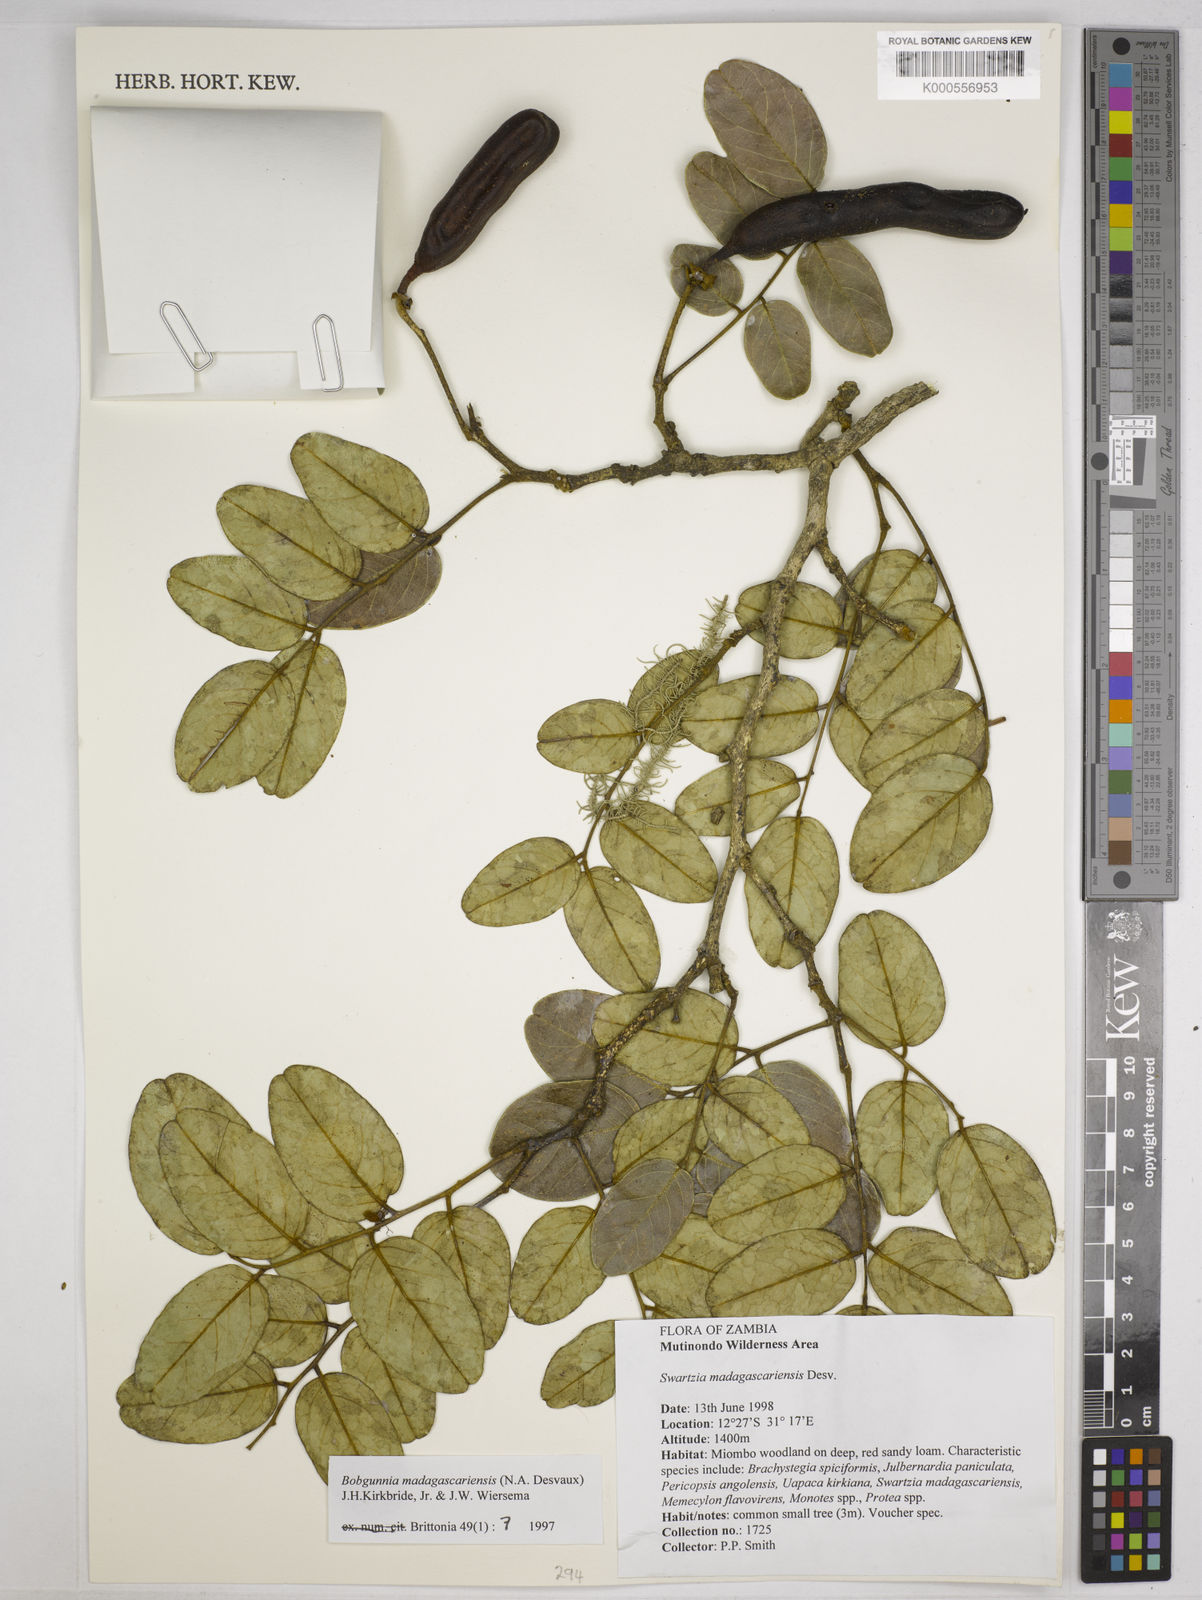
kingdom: Plantae
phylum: Tracheophyta
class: Magnoliopsida
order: Fabales
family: Fabaceae
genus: Bobgunnia
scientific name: Bobgunnia madagascariensis
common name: Snake bean plant
